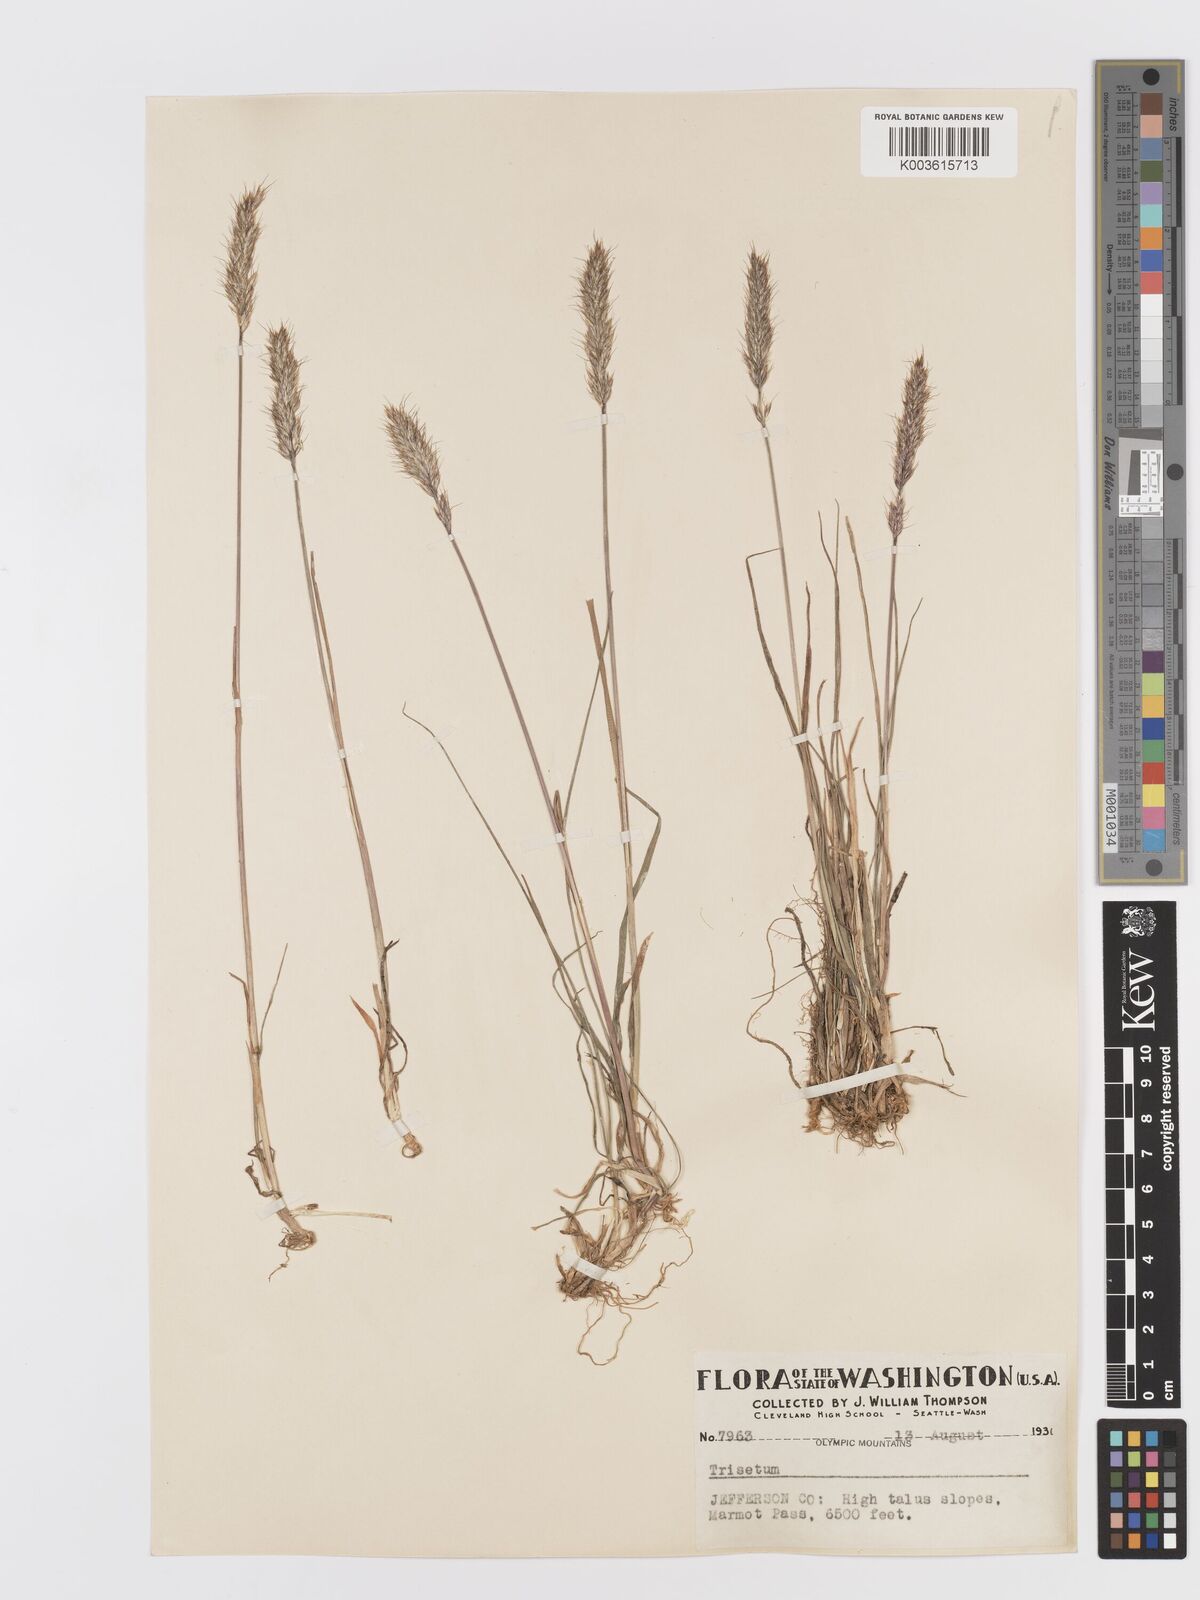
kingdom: Plantae
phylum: Tracheophyta
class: Liliopsida
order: Poales
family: Poaceae
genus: Koeleria
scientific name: Koeleria spicata
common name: Mountain trisetum
